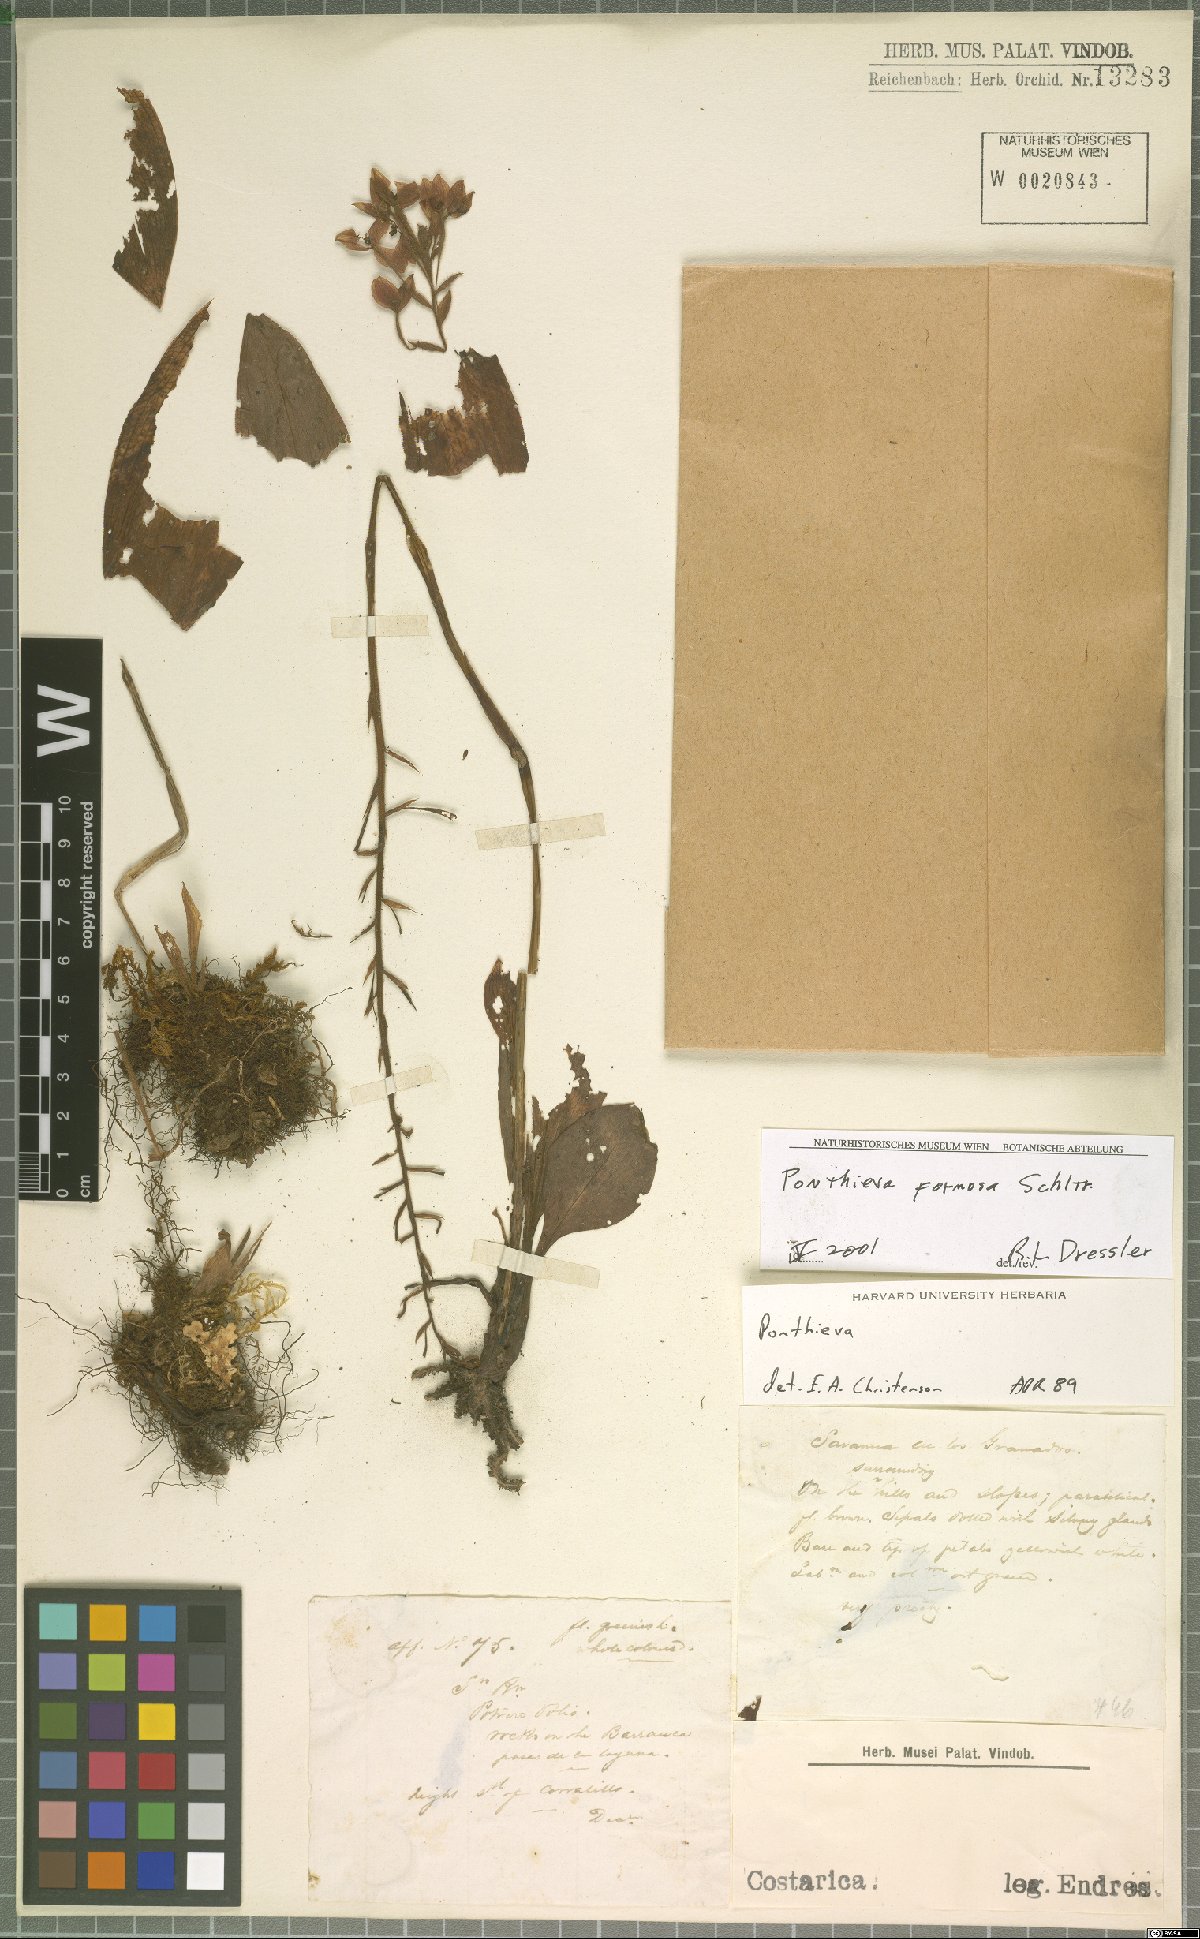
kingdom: Plantae
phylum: Tracheophyta
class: Liliopsida
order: Asparagales
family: Orchidaceae
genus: Ponthieva
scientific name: Ponthieva formosa
